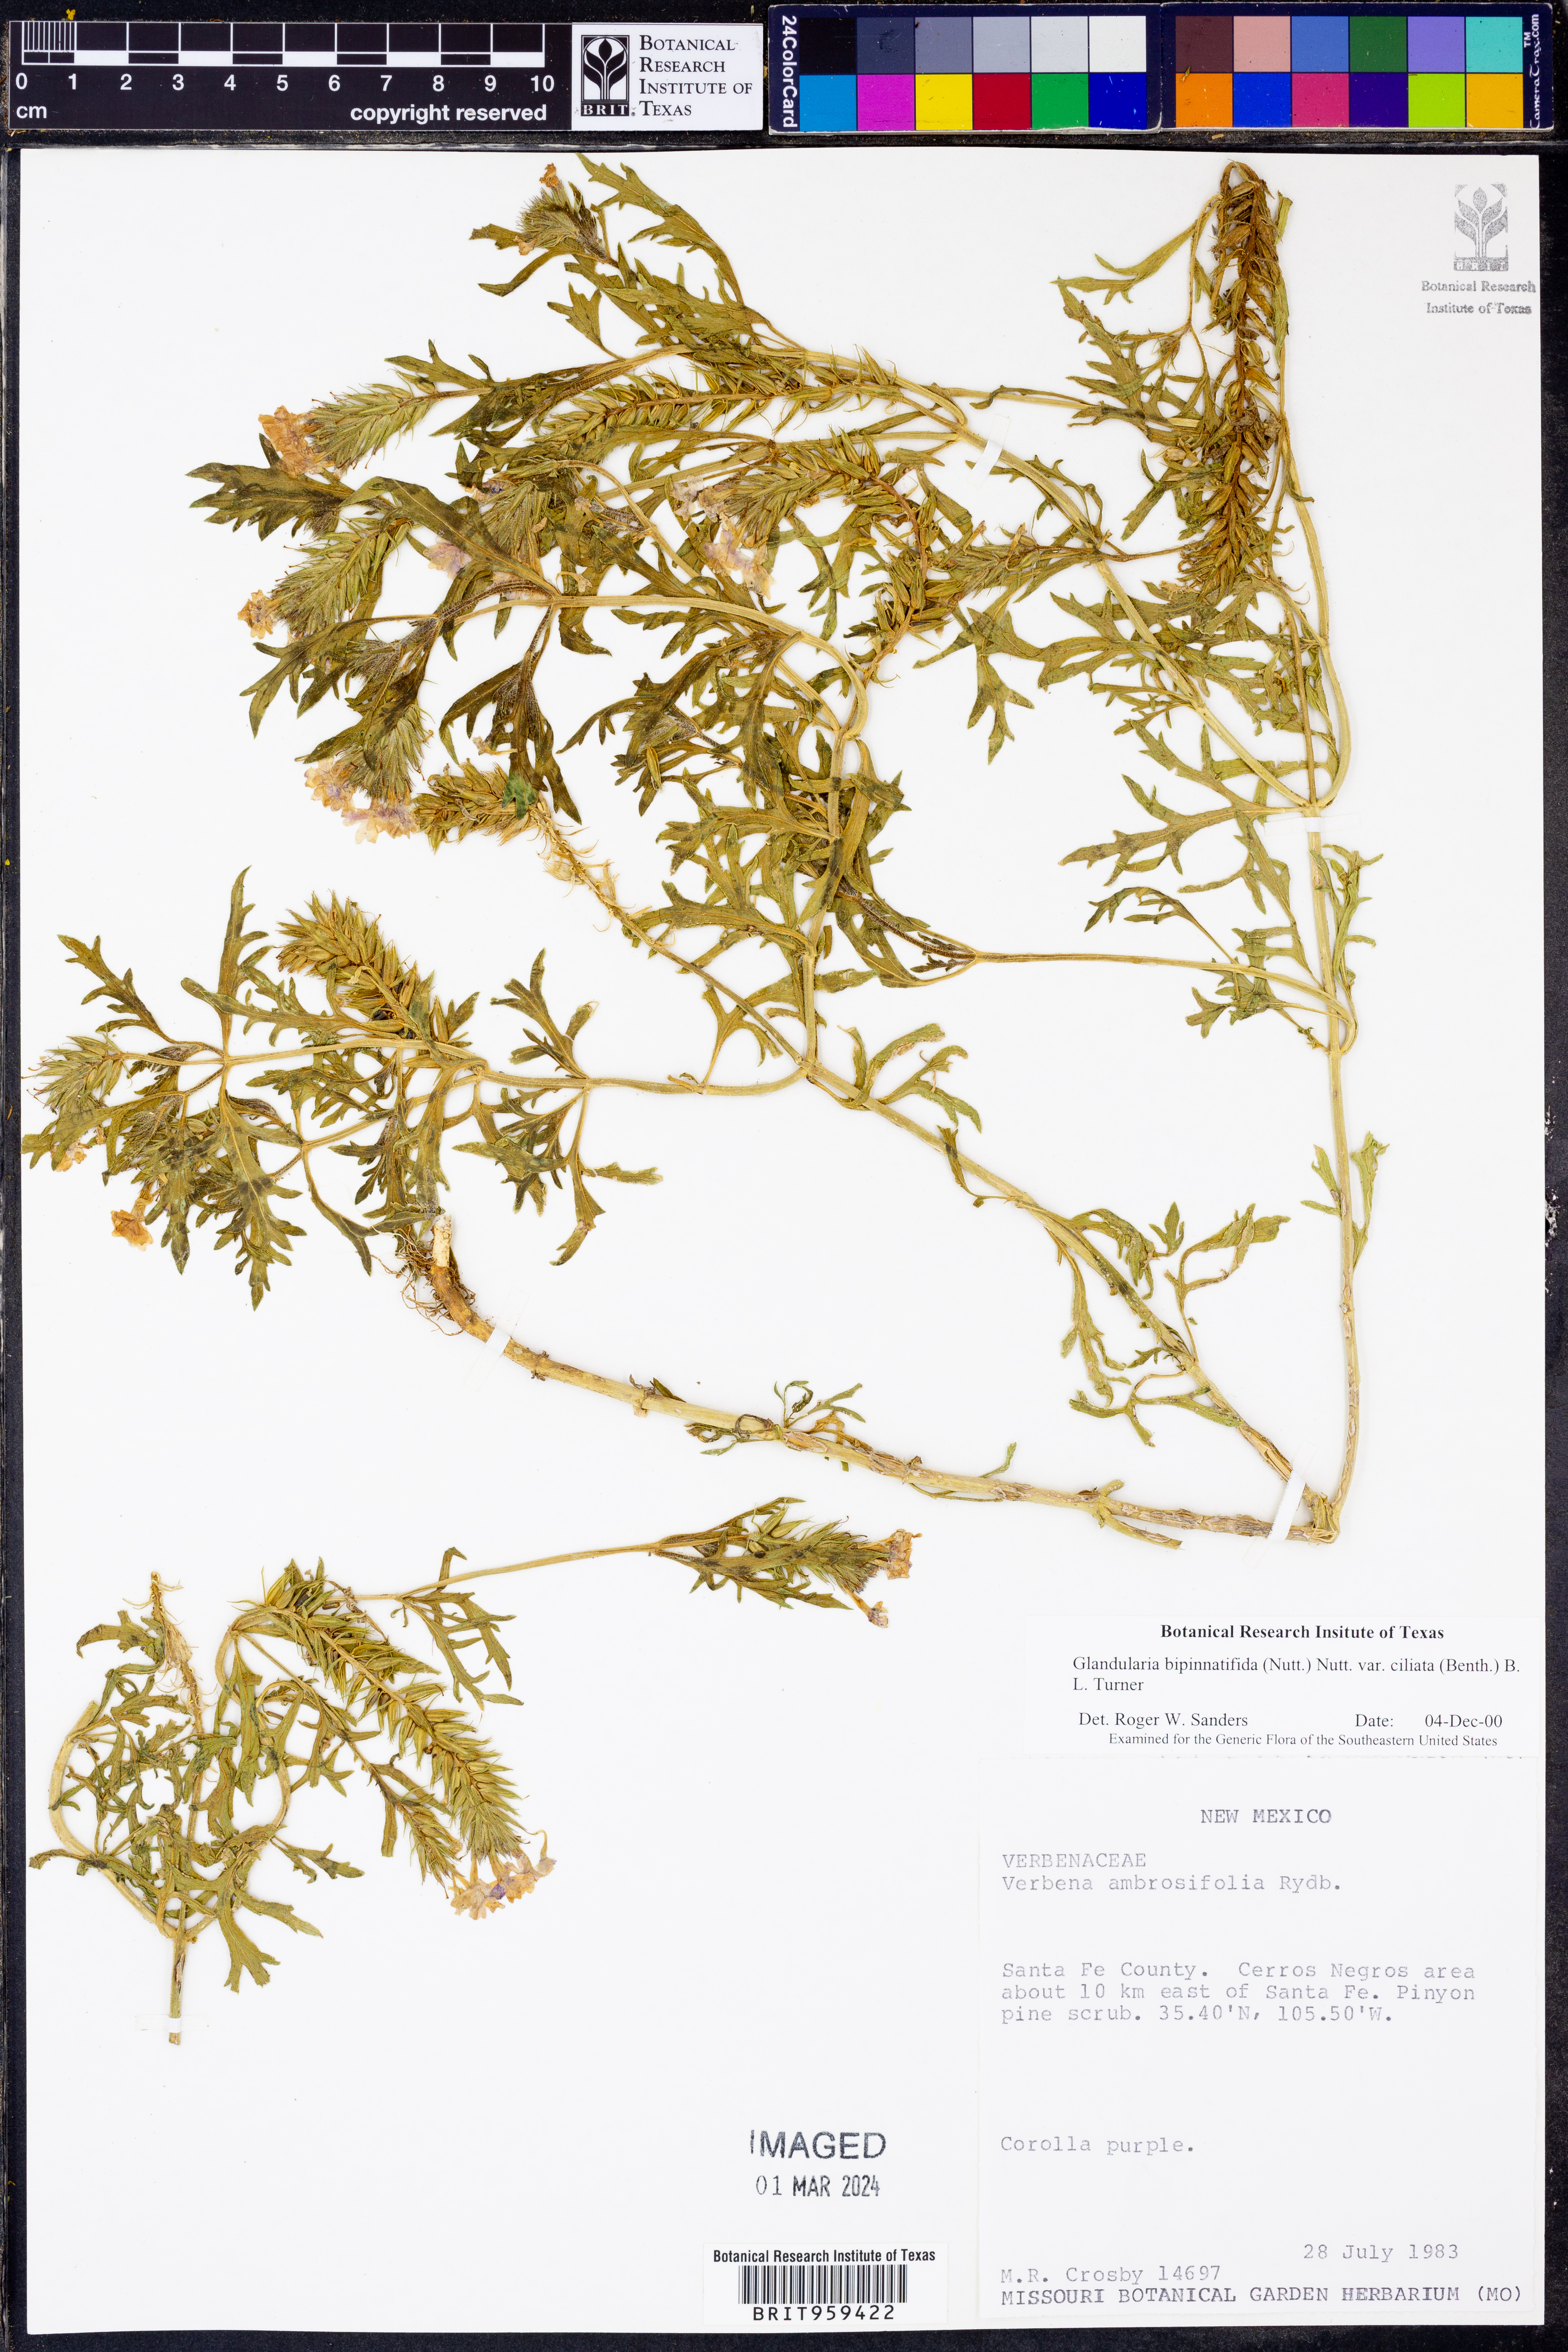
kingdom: Plantae
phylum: Tracheophyta
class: Magnoliopsida
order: Lamiales
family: Verbenaceae
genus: Verbena
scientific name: Verbena bipinnatifida
